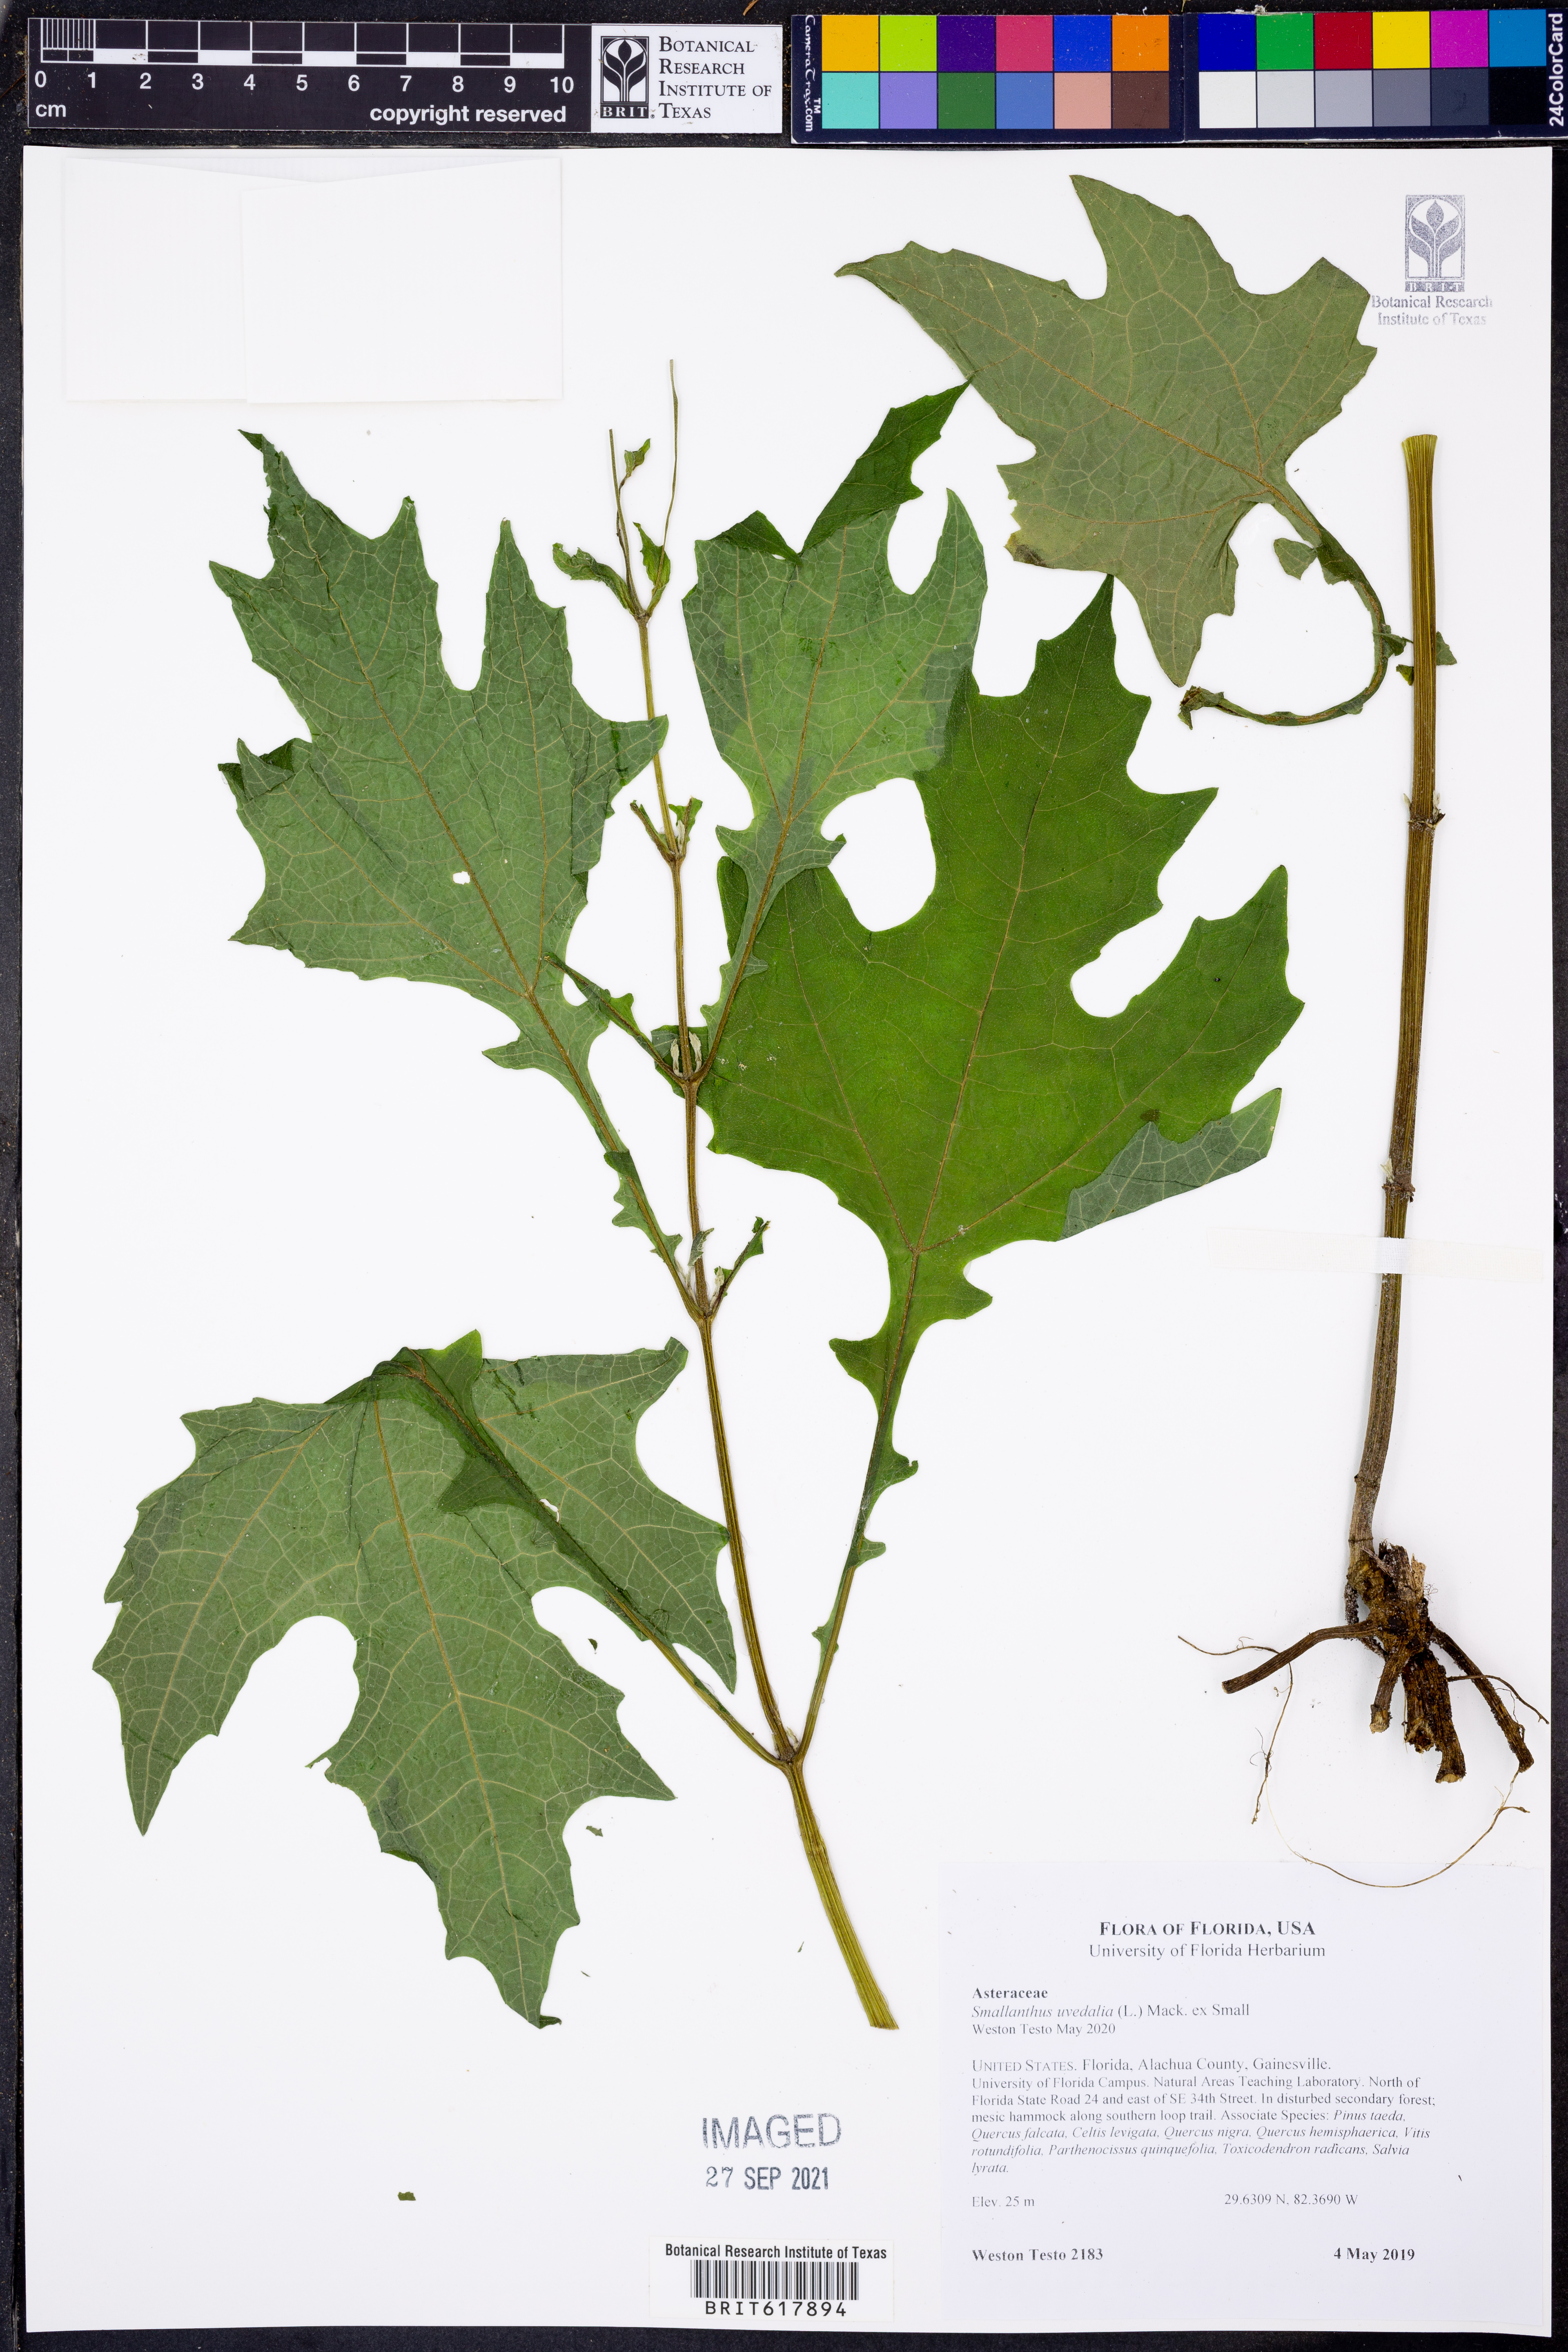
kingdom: Plantae
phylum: Tracheophyta
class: Magnoliopsida
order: Asterales
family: Asteraceae
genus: Smallanthus
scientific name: Smallanthus uvedalia
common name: Bear's-foot
